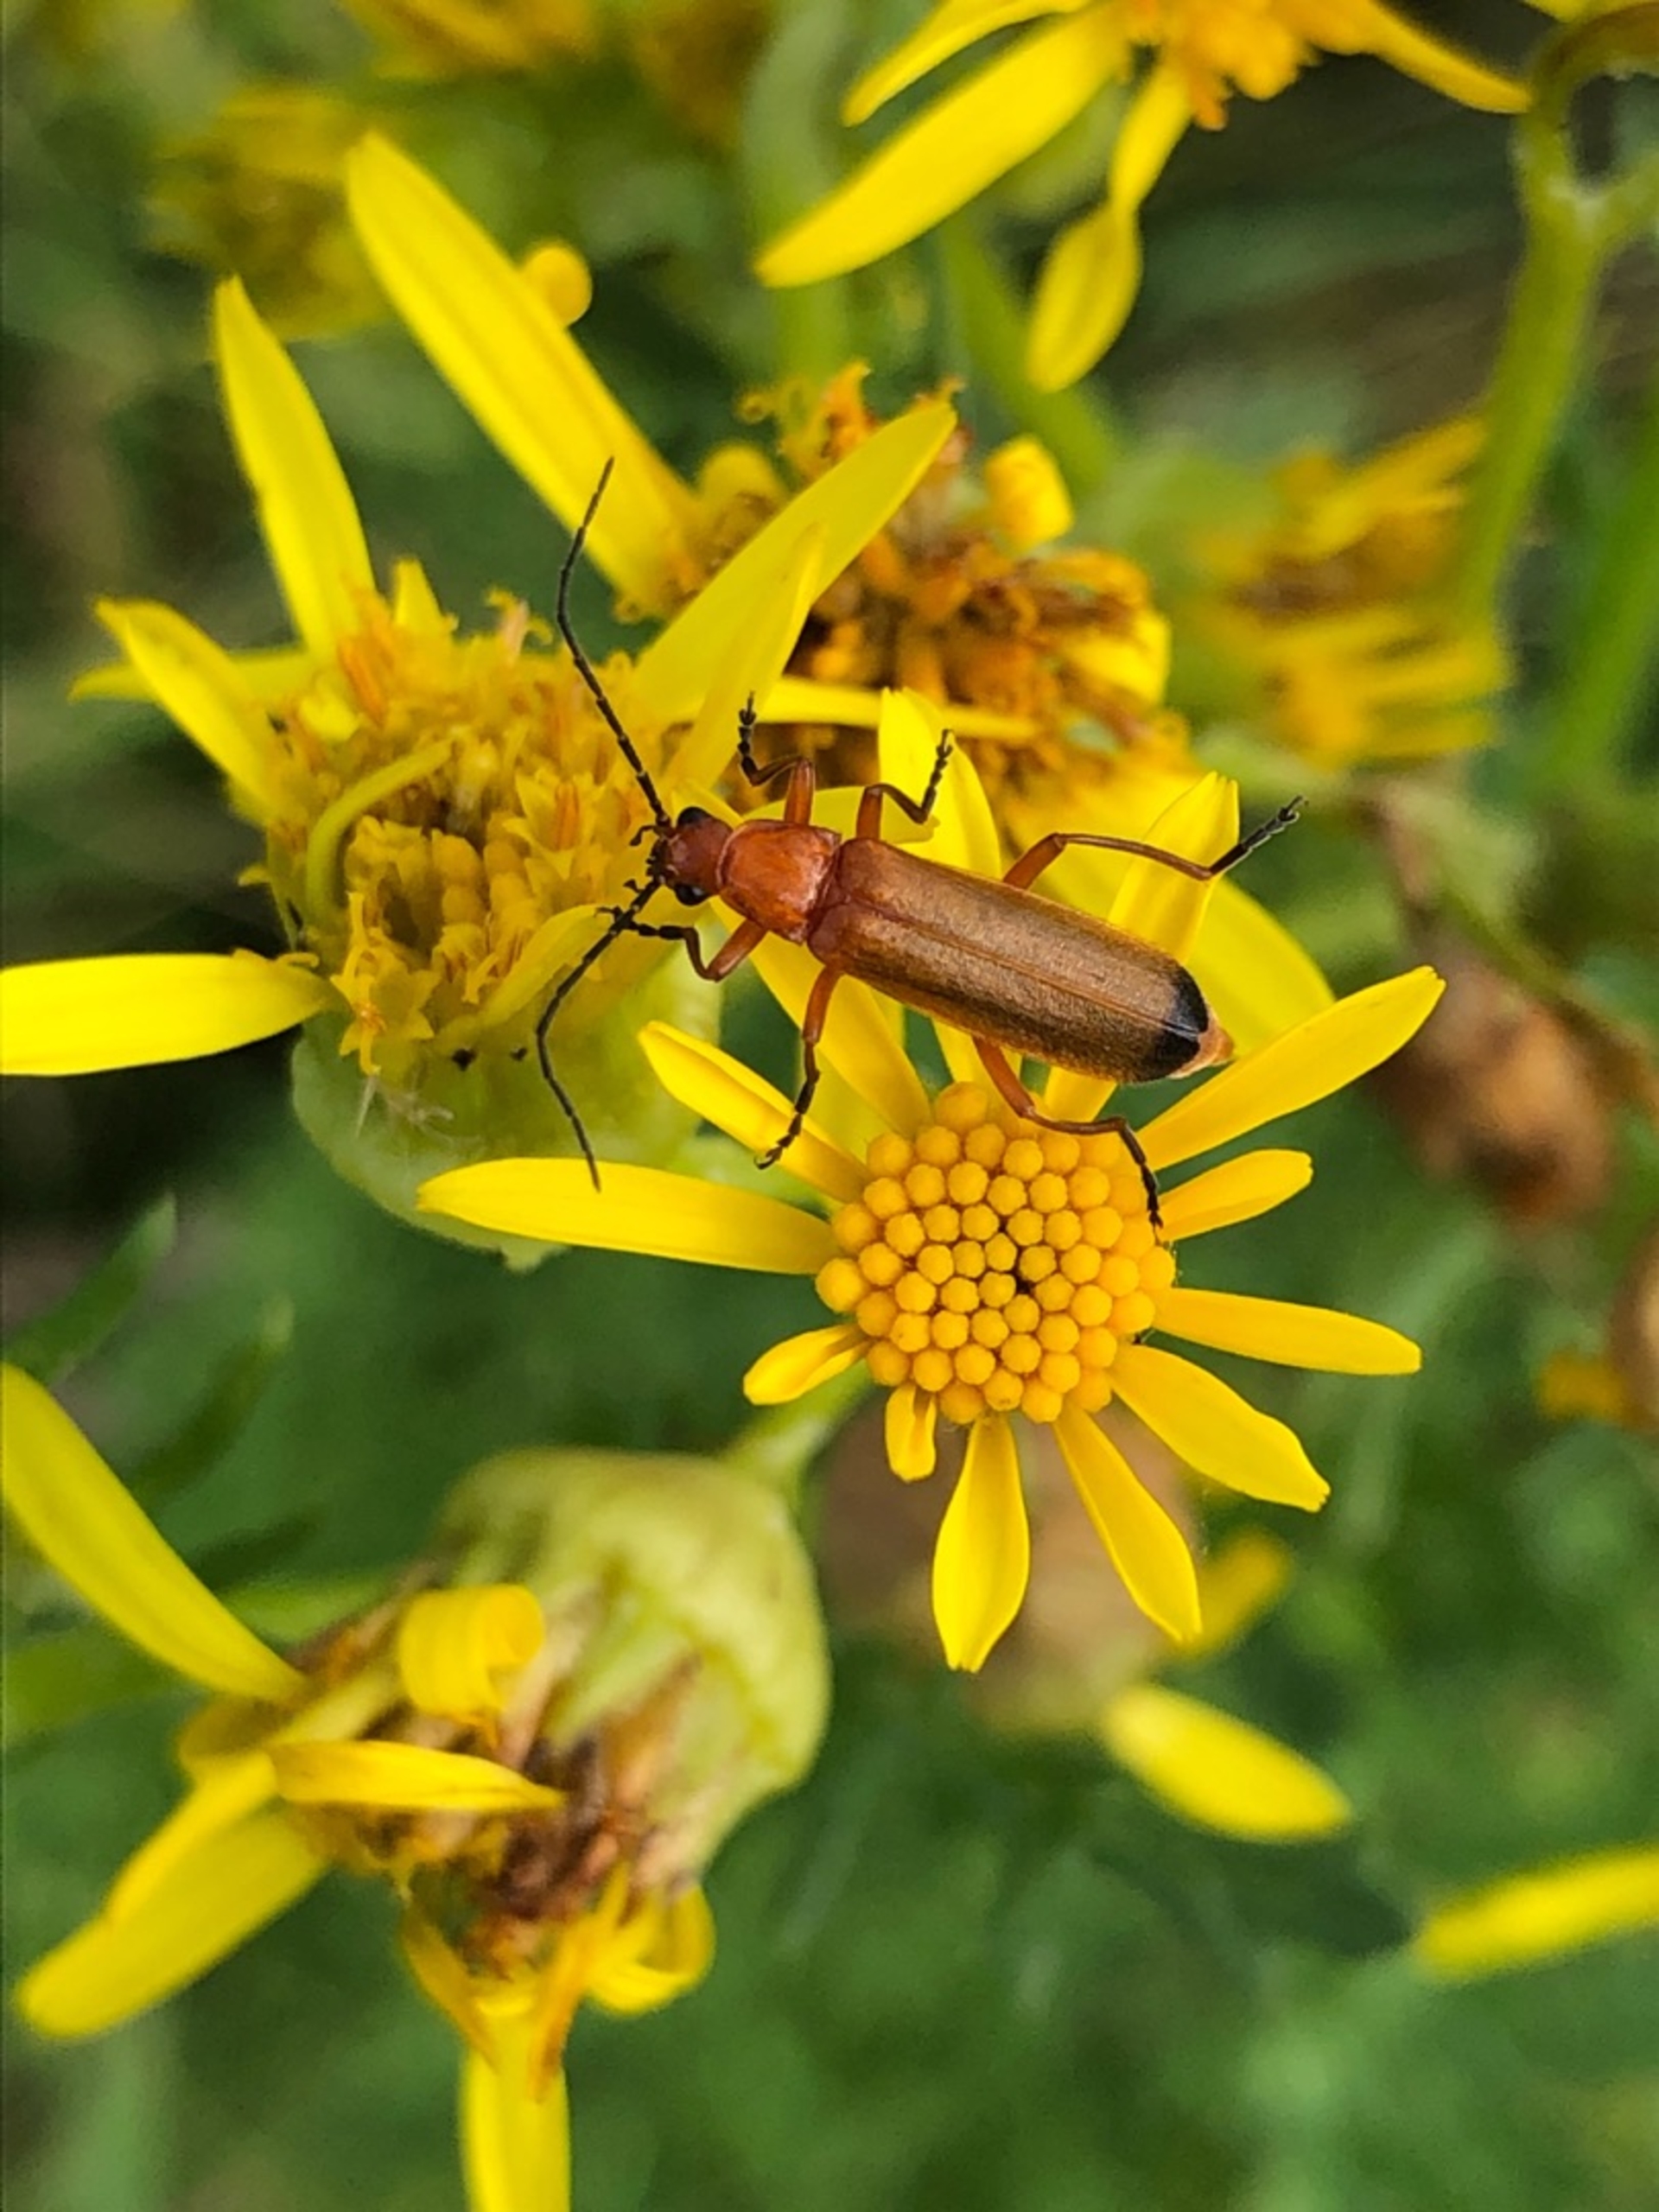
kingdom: Animalia
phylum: Arthropoda
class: Insecta
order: Coleoptera
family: Cantharidae
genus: Rhagonycha
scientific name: Rhagonycha fulva
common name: Præstebille
